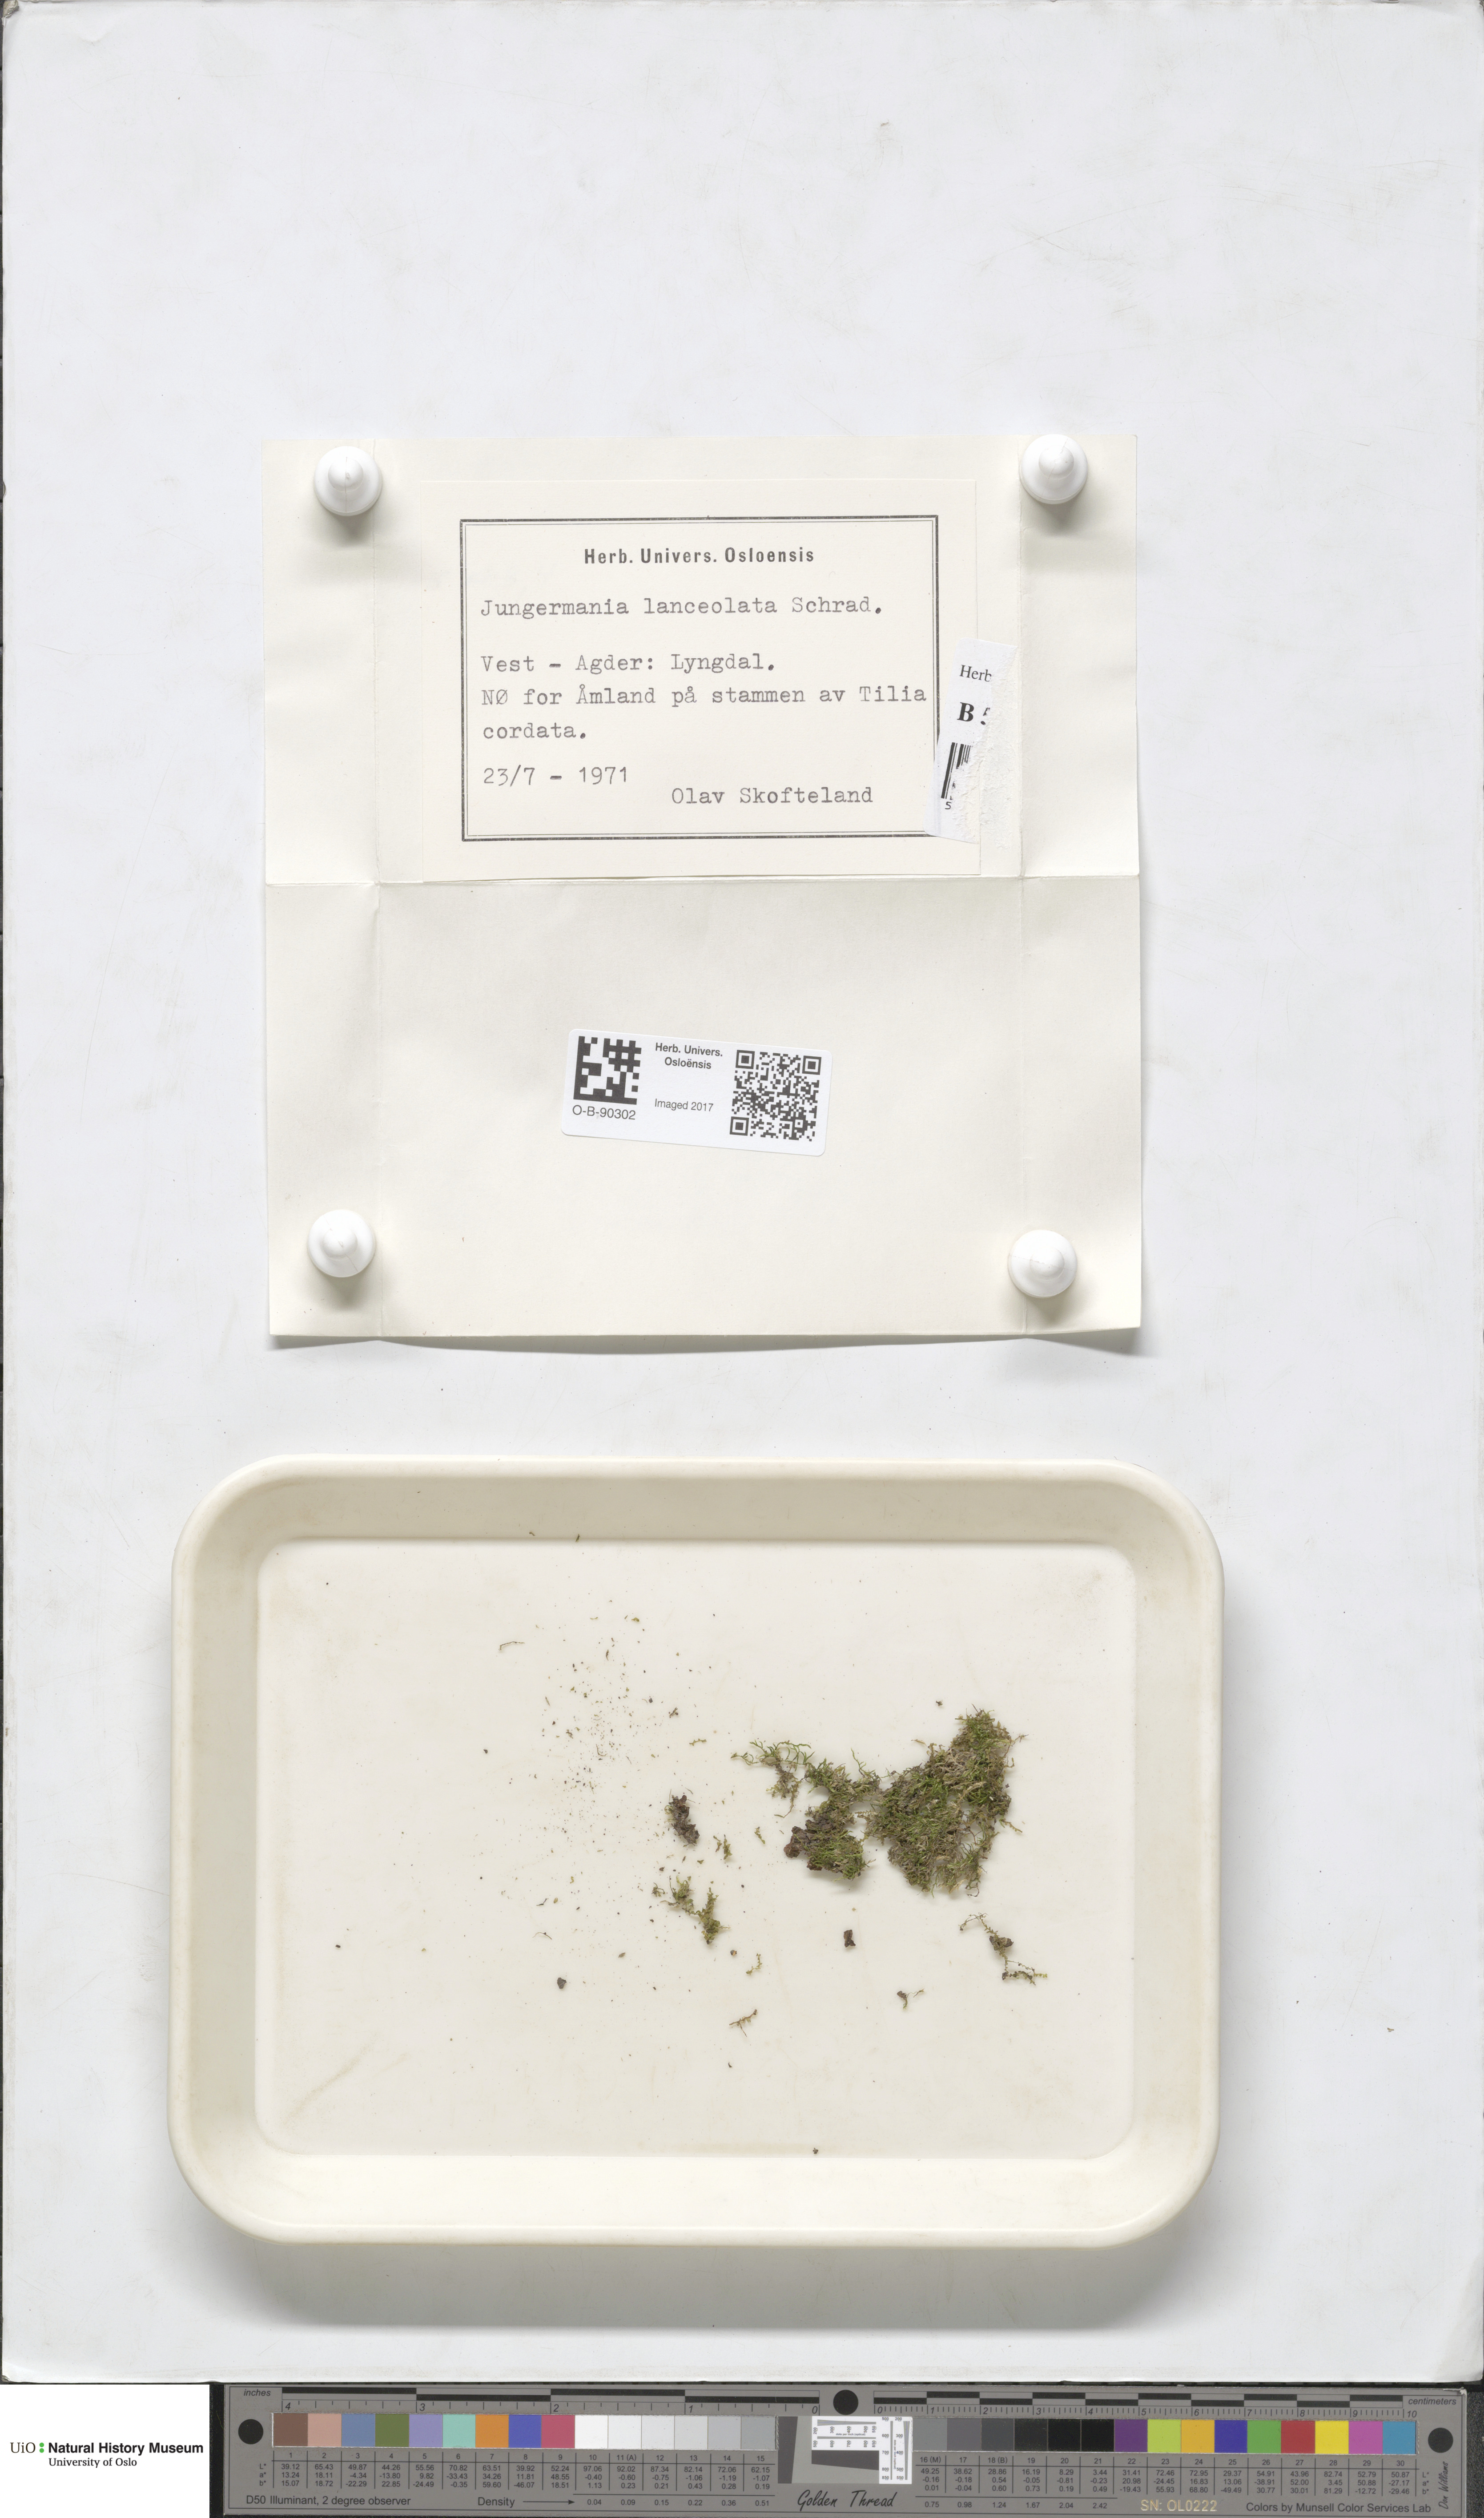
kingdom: Plantae
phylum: Marchantiophyta
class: Jungermanniopsida
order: Jungermanniales
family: Jungermanniaceae
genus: Liochlaena
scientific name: Liochlaena lanceolata
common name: Long-leaved flapwort
